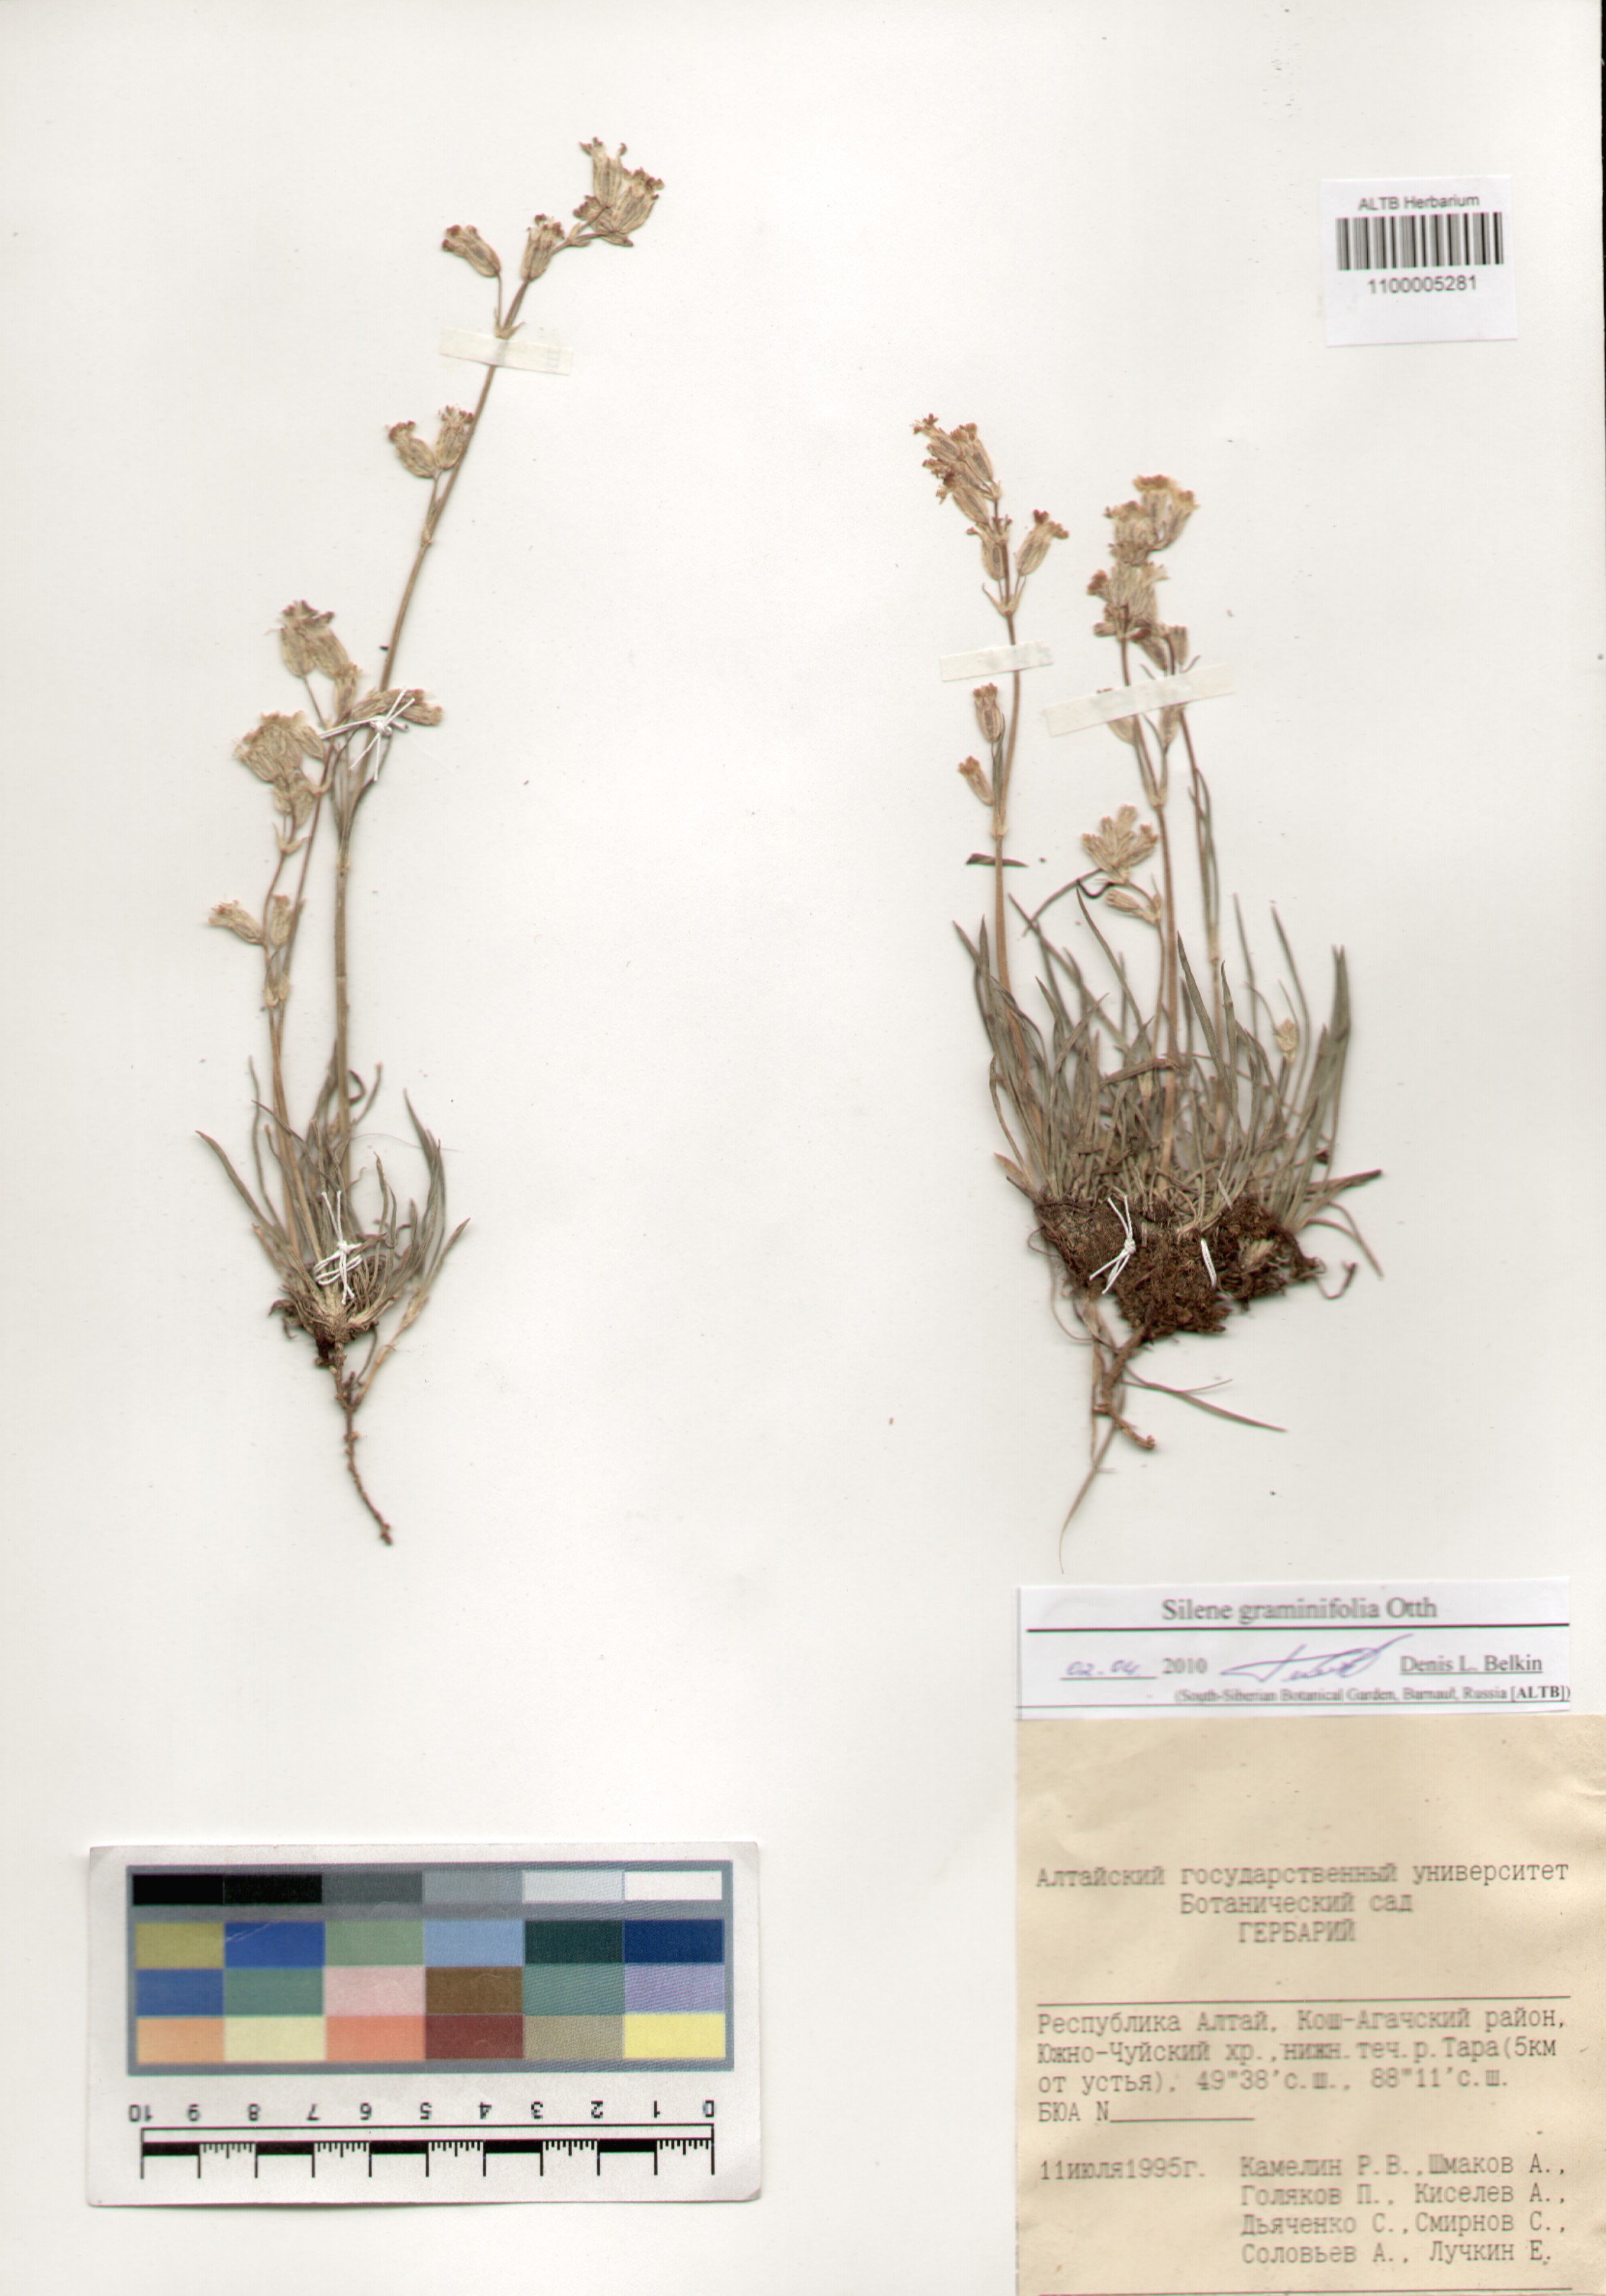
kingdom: Plantae
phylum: Tracheophyta
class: Magnoliopsida
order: Caryophyllales
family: Caryophyllaceae
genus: Silene
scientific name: Silene graminifolia
